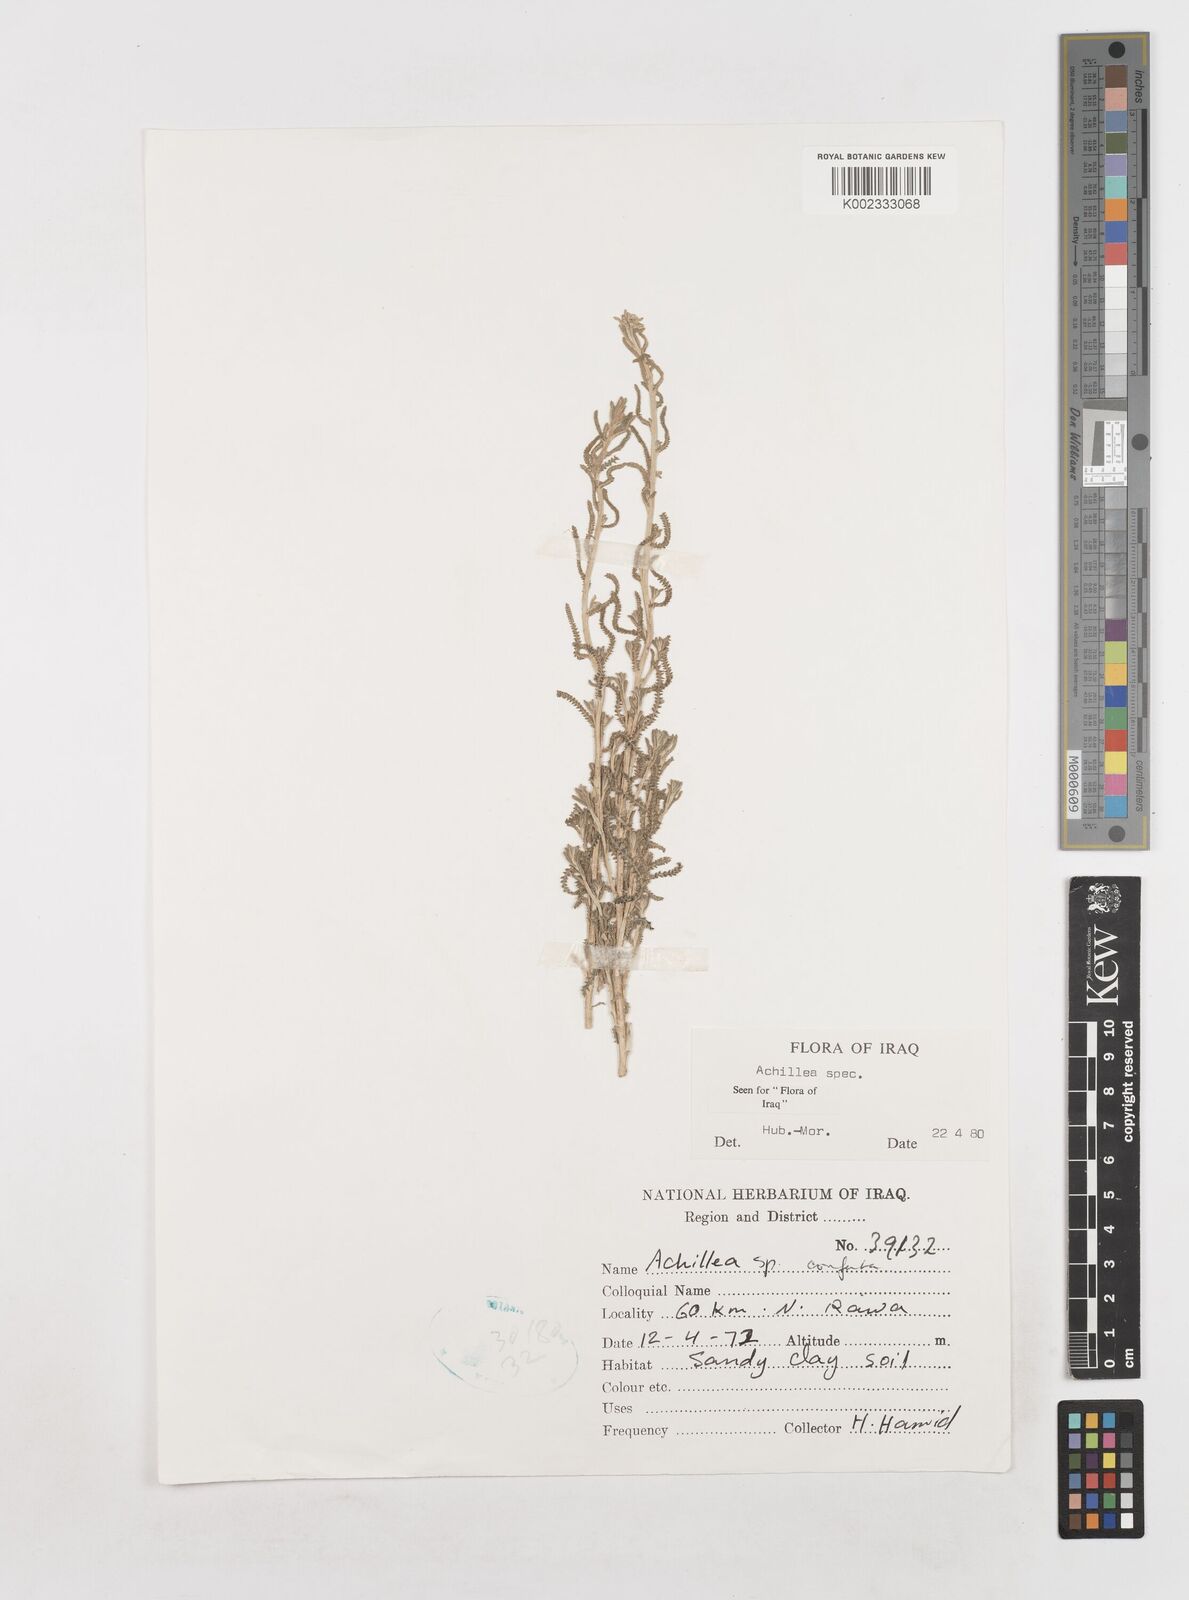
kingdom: Plantae
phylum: Tracheophyta
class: Magnoliopsida
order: Asterales
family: Asteraceae
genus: Achillea
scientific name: Achillea
